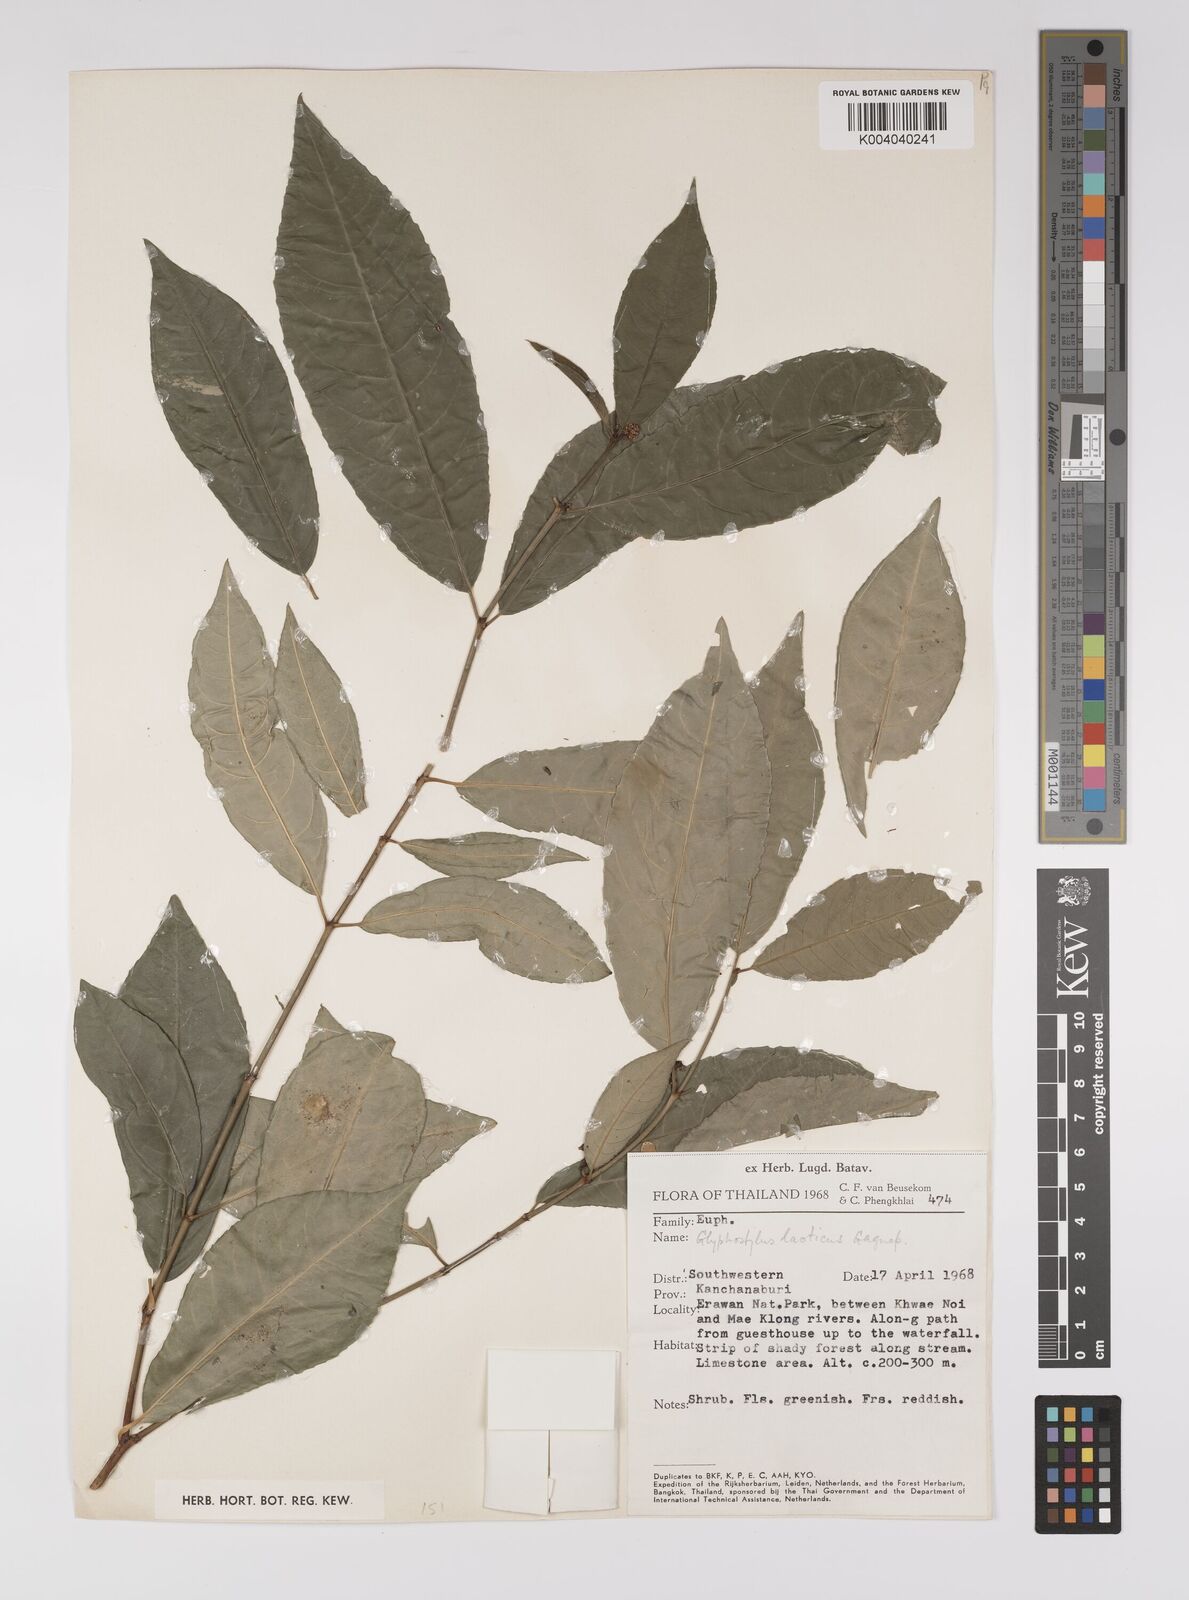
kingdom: Plantae
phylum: Tracheophyta
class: Magnoliopsida
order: Malpighiales
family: Euphorbiaceae
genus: Excoecaria
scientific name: Excoecaria laotica
